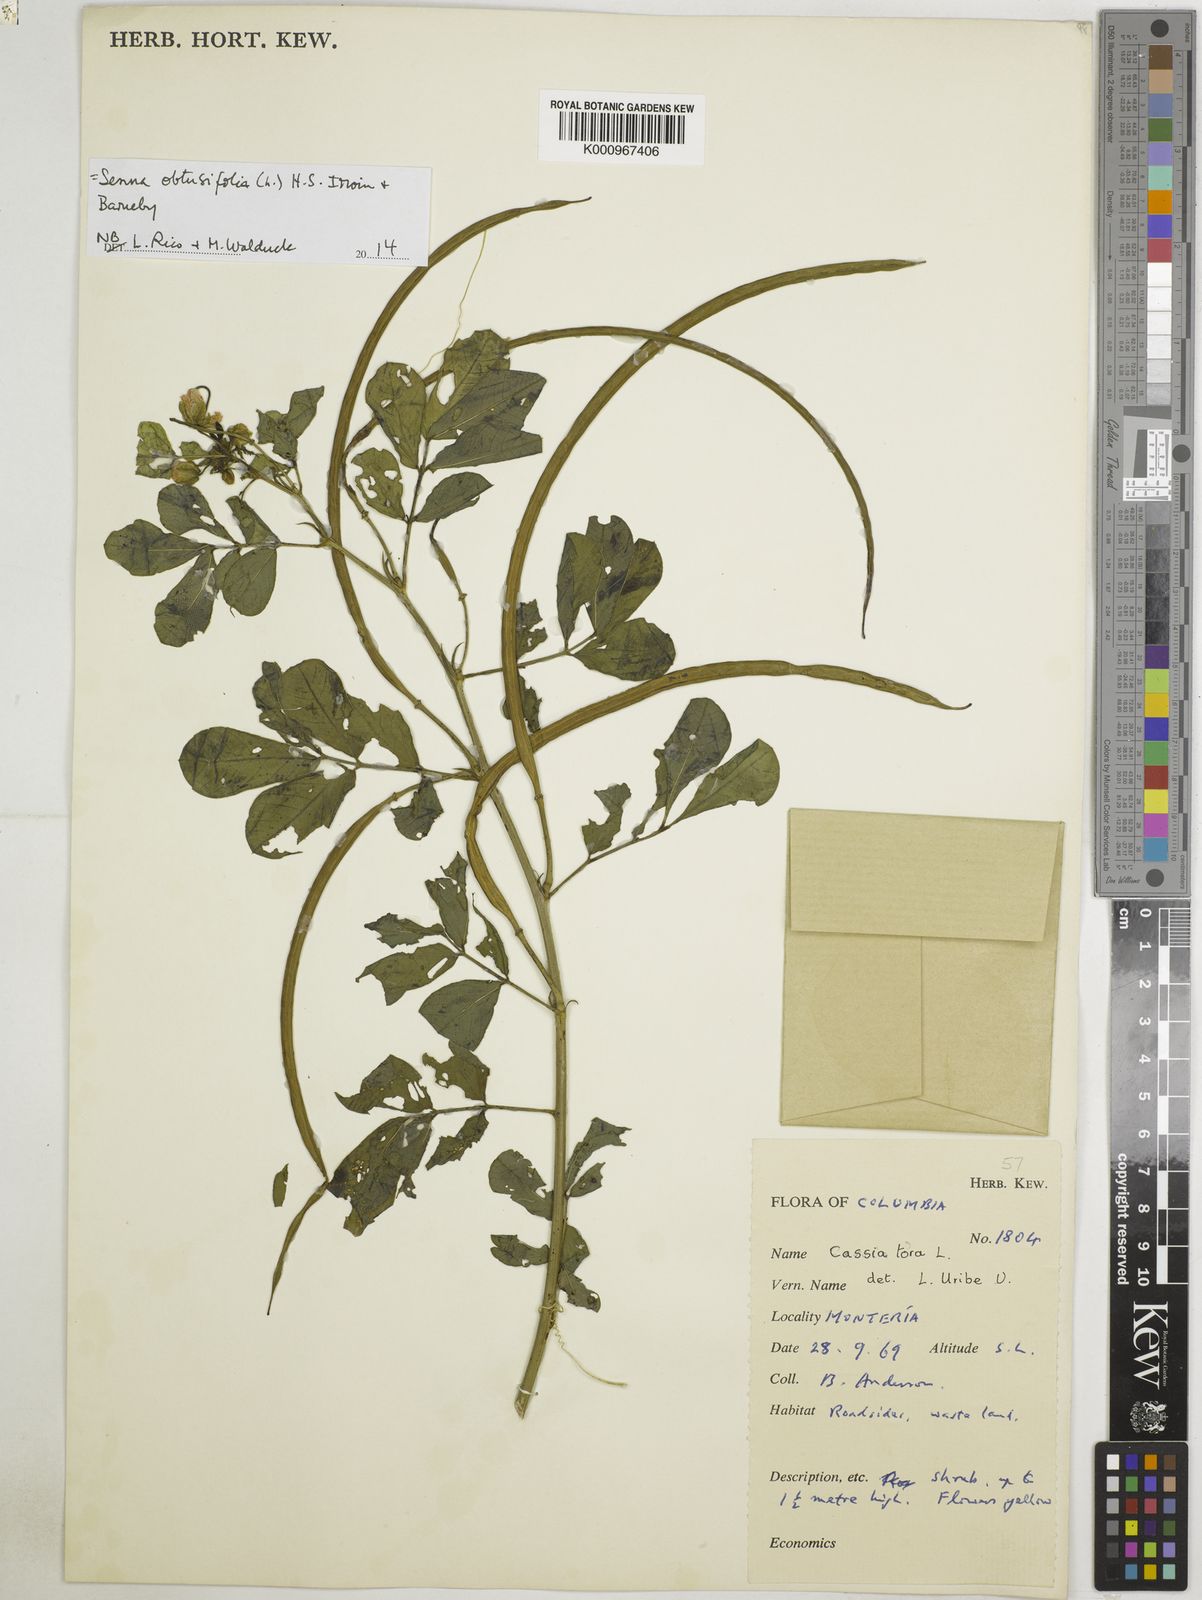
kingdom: Plantae
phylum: Tracheophyta
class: Magnoliopsida
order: Fabales
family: Fabaceae
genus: Senna
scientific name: Senna obtusifolia
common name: Java-bean
